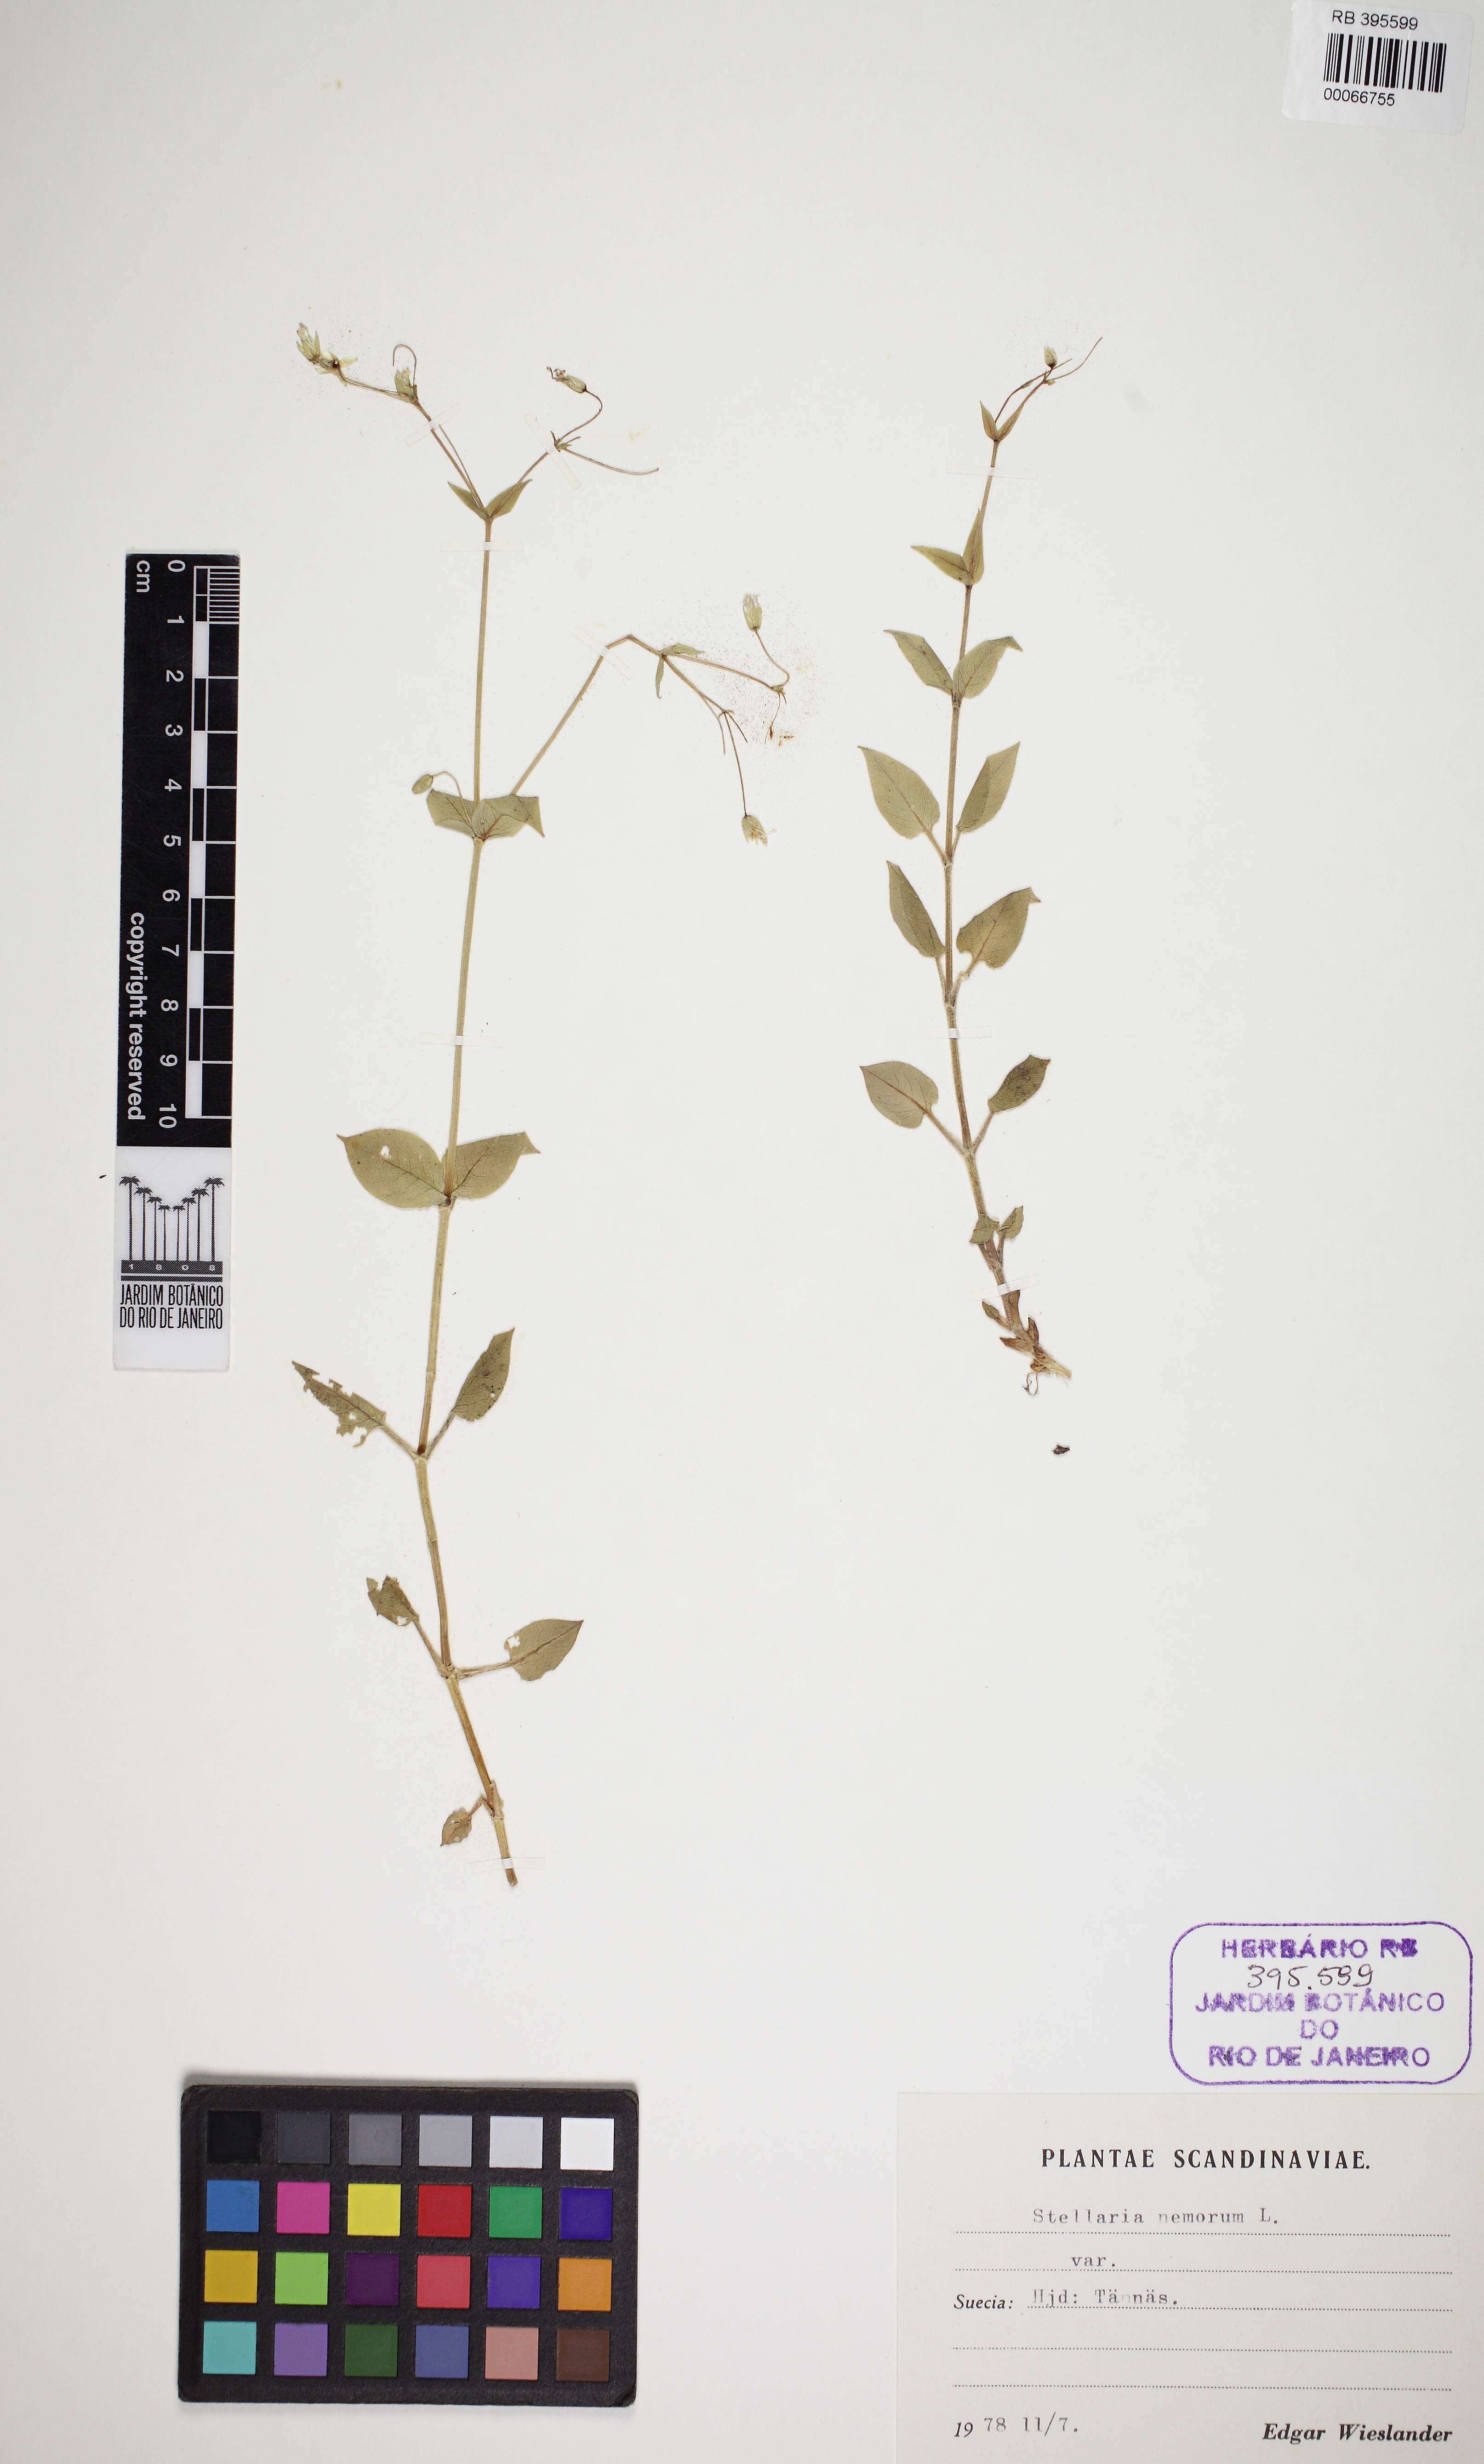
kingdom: Plantae
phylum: Tracheophyta
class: Magnoliopsida
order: Caryophyllales
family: Caryophyllaceae
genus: Stellaria
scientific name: Stellaria nemorum
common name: Wood stitchwort
